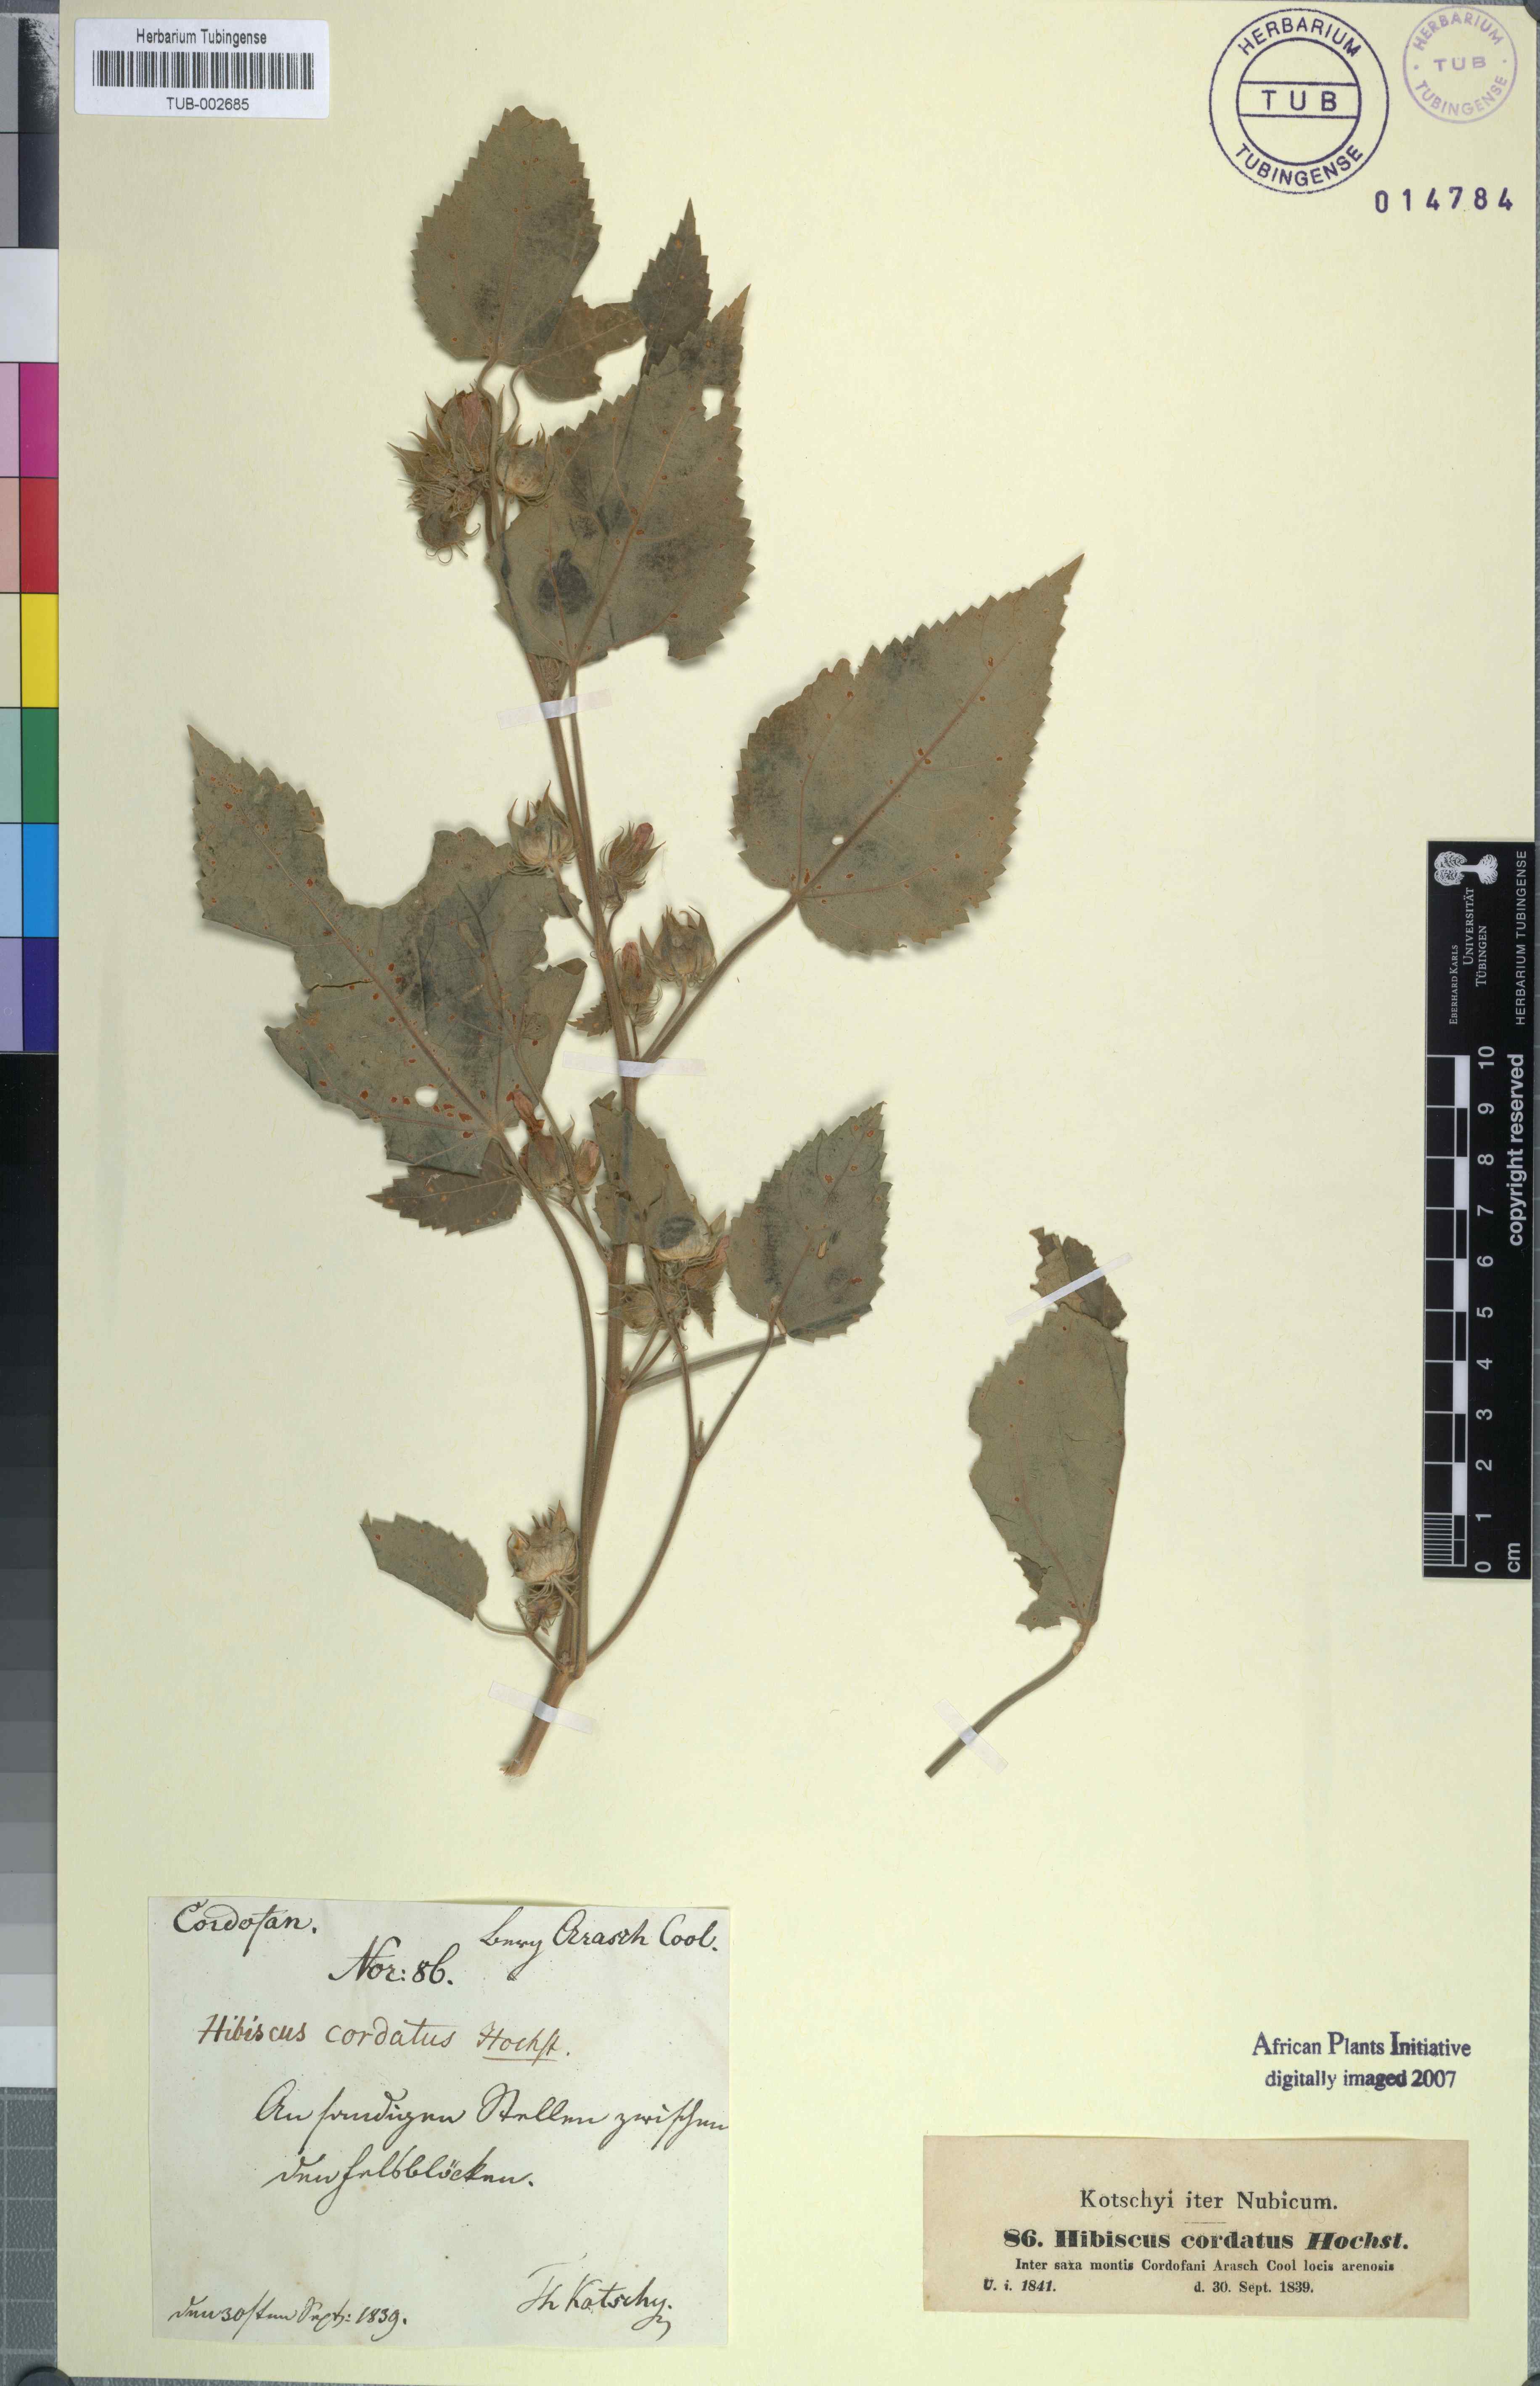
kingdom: Plantae
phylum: Tracheophyta
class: Magnoliopsida
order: Malvales
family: Malvaceae
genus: Hibiscus
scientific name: Hibiscus
